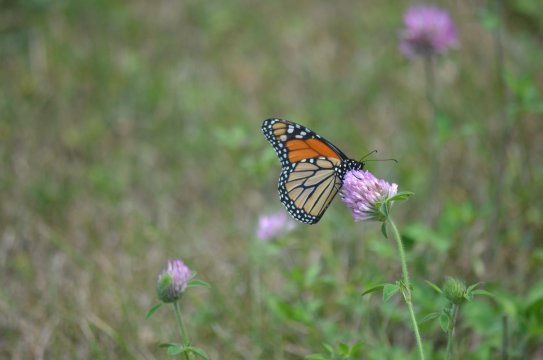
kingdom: Animalia
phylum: Arthropoda
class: Insecta
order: Lepidoptera
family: Nymphalidae
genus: Danaus
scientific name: Danaus plexippus
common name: Monarch
